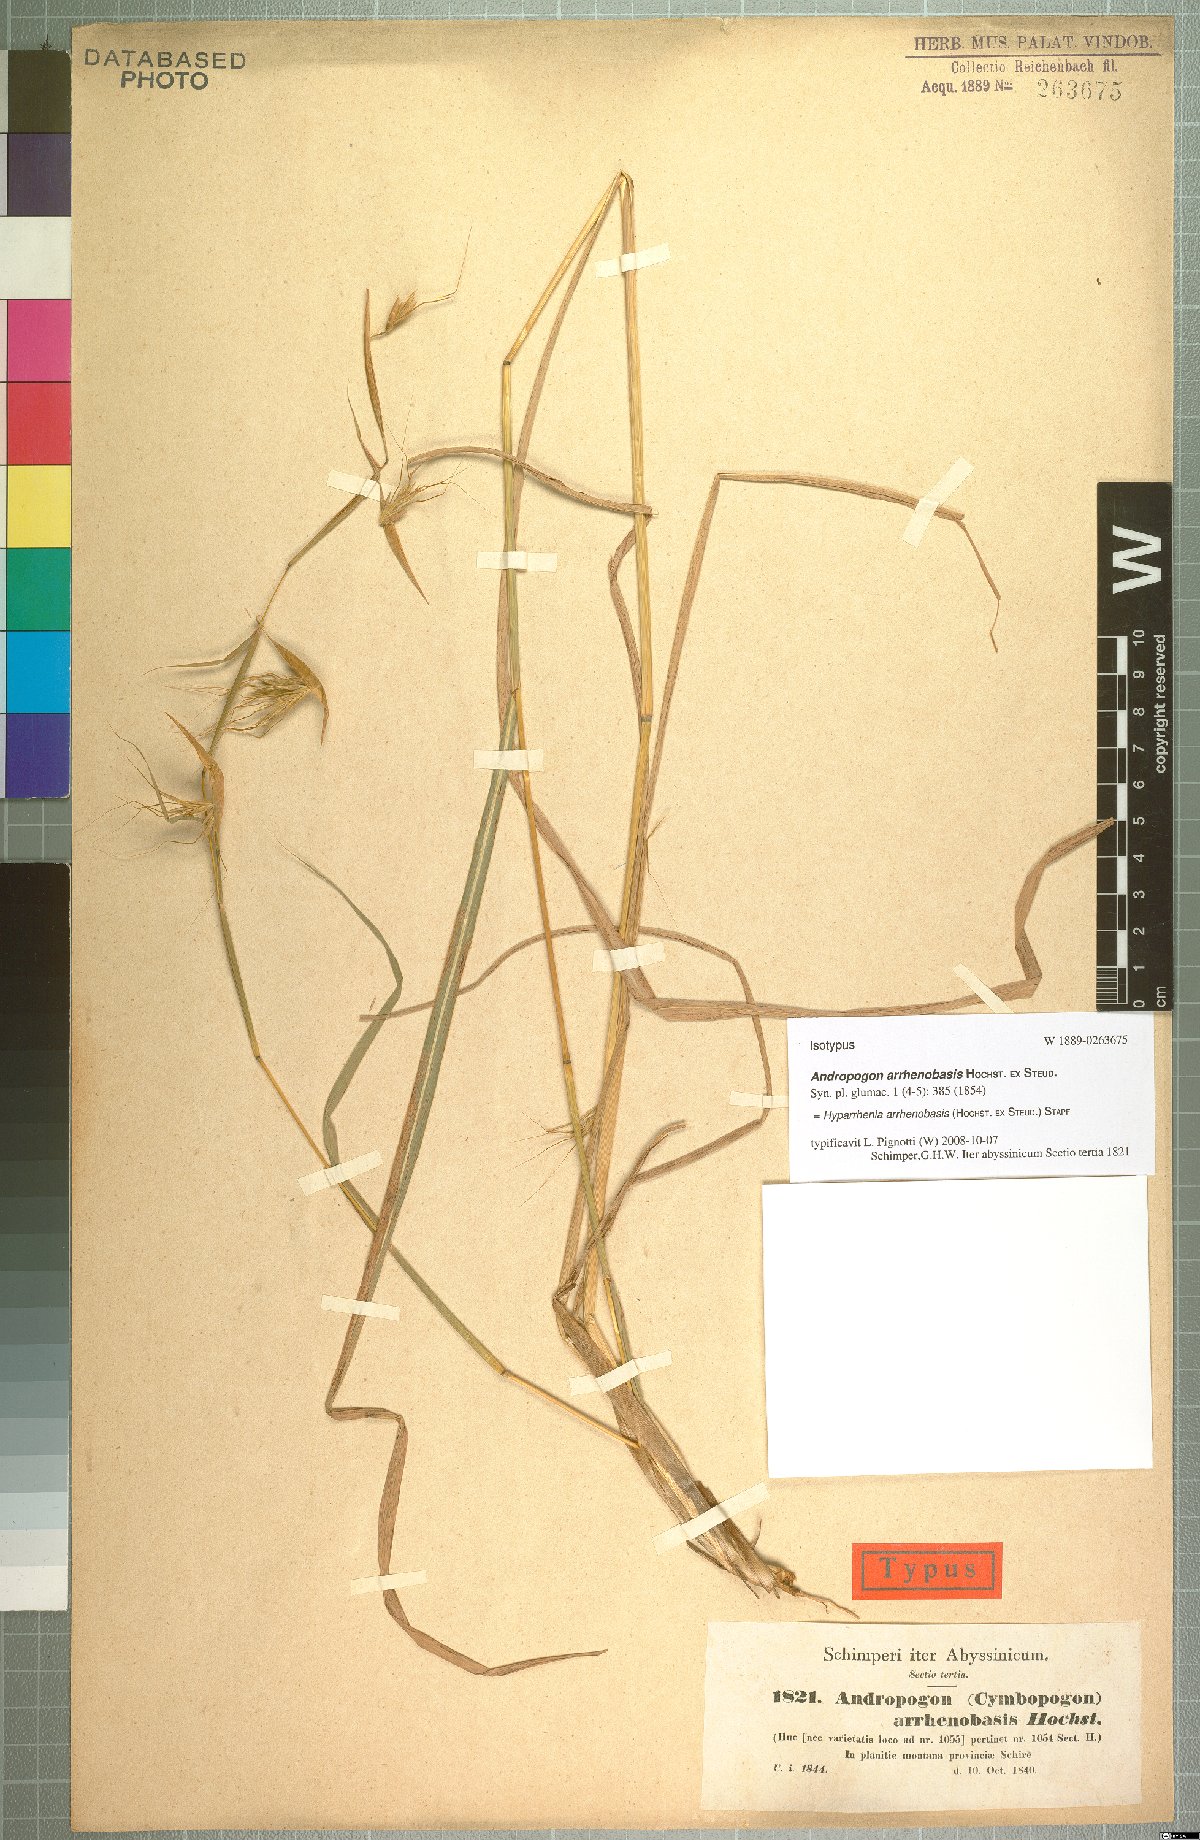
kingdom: Plantae
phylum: Tracheophyta
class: Liliopsida
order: Poales
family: Poaceae
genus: Hyparrhenia
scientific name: Hyparrhenia arrhenobasis
